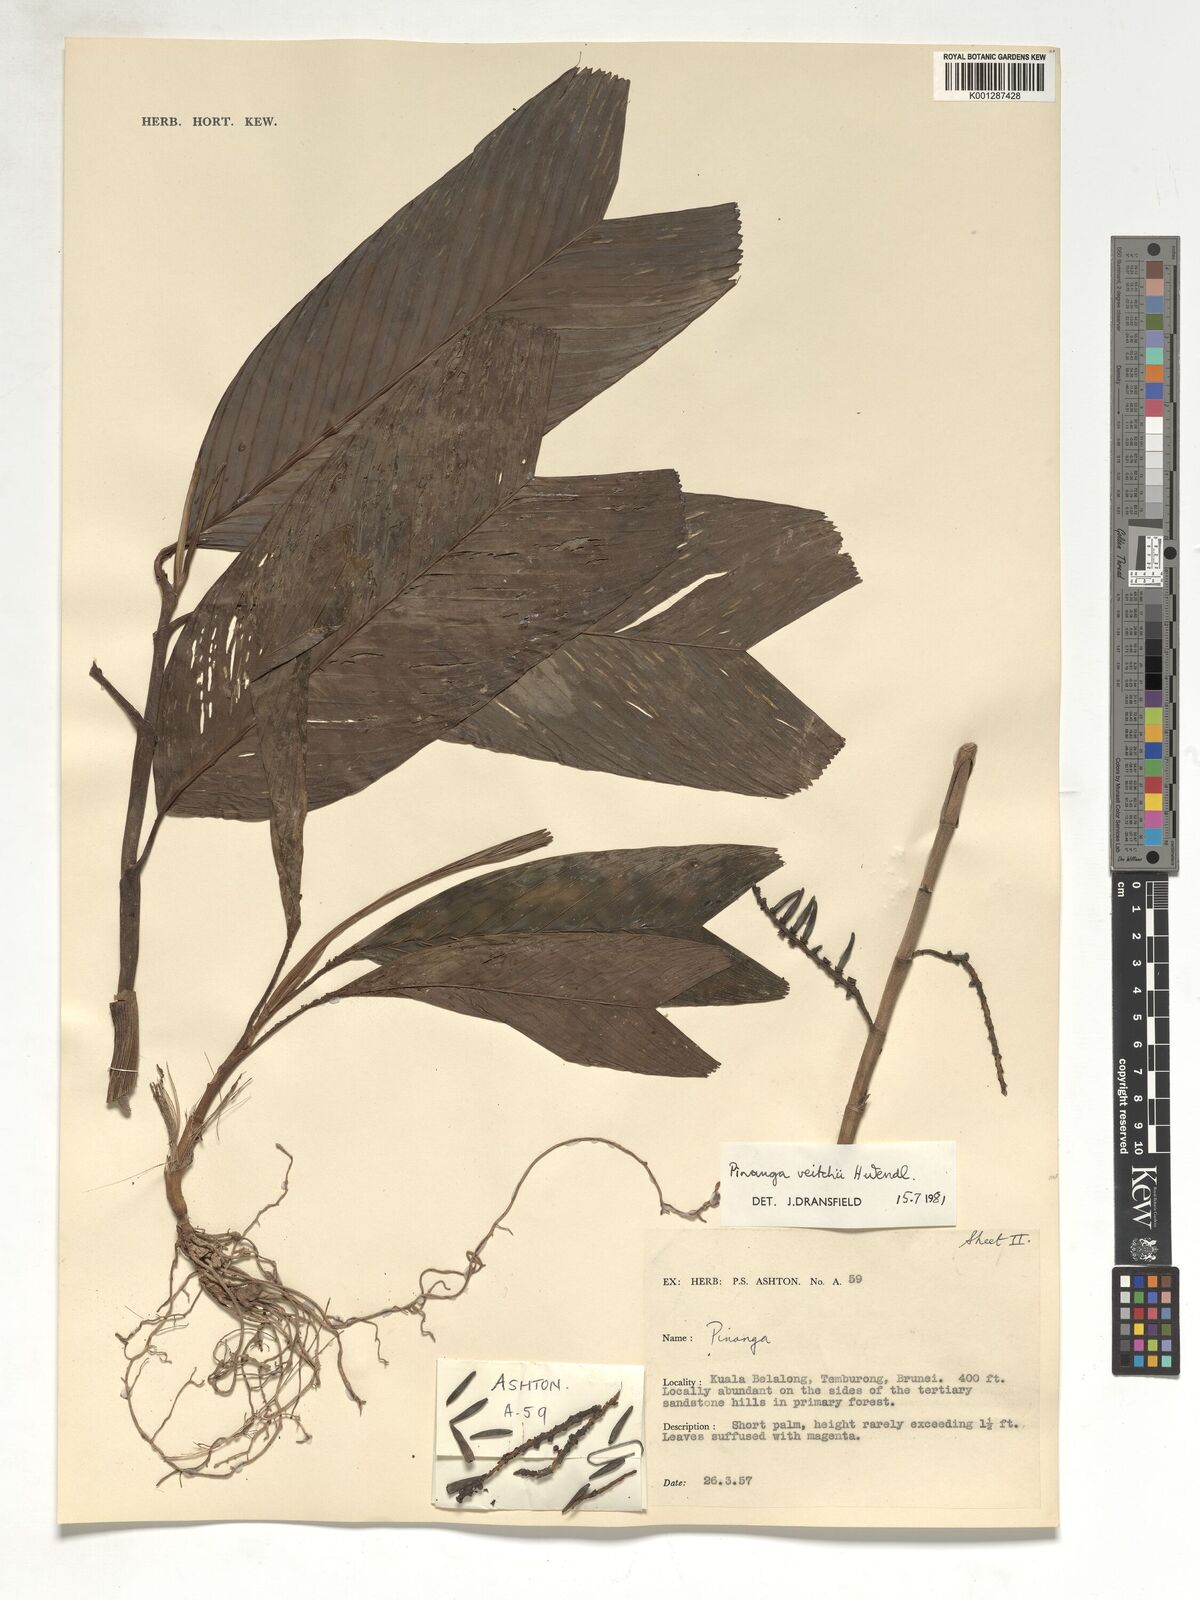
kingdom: Plantae
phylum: Tracheophyta
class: Liliopsida
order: Arecales
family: Arecaceae
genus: Pinanga
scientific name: Pinanga veitchii
